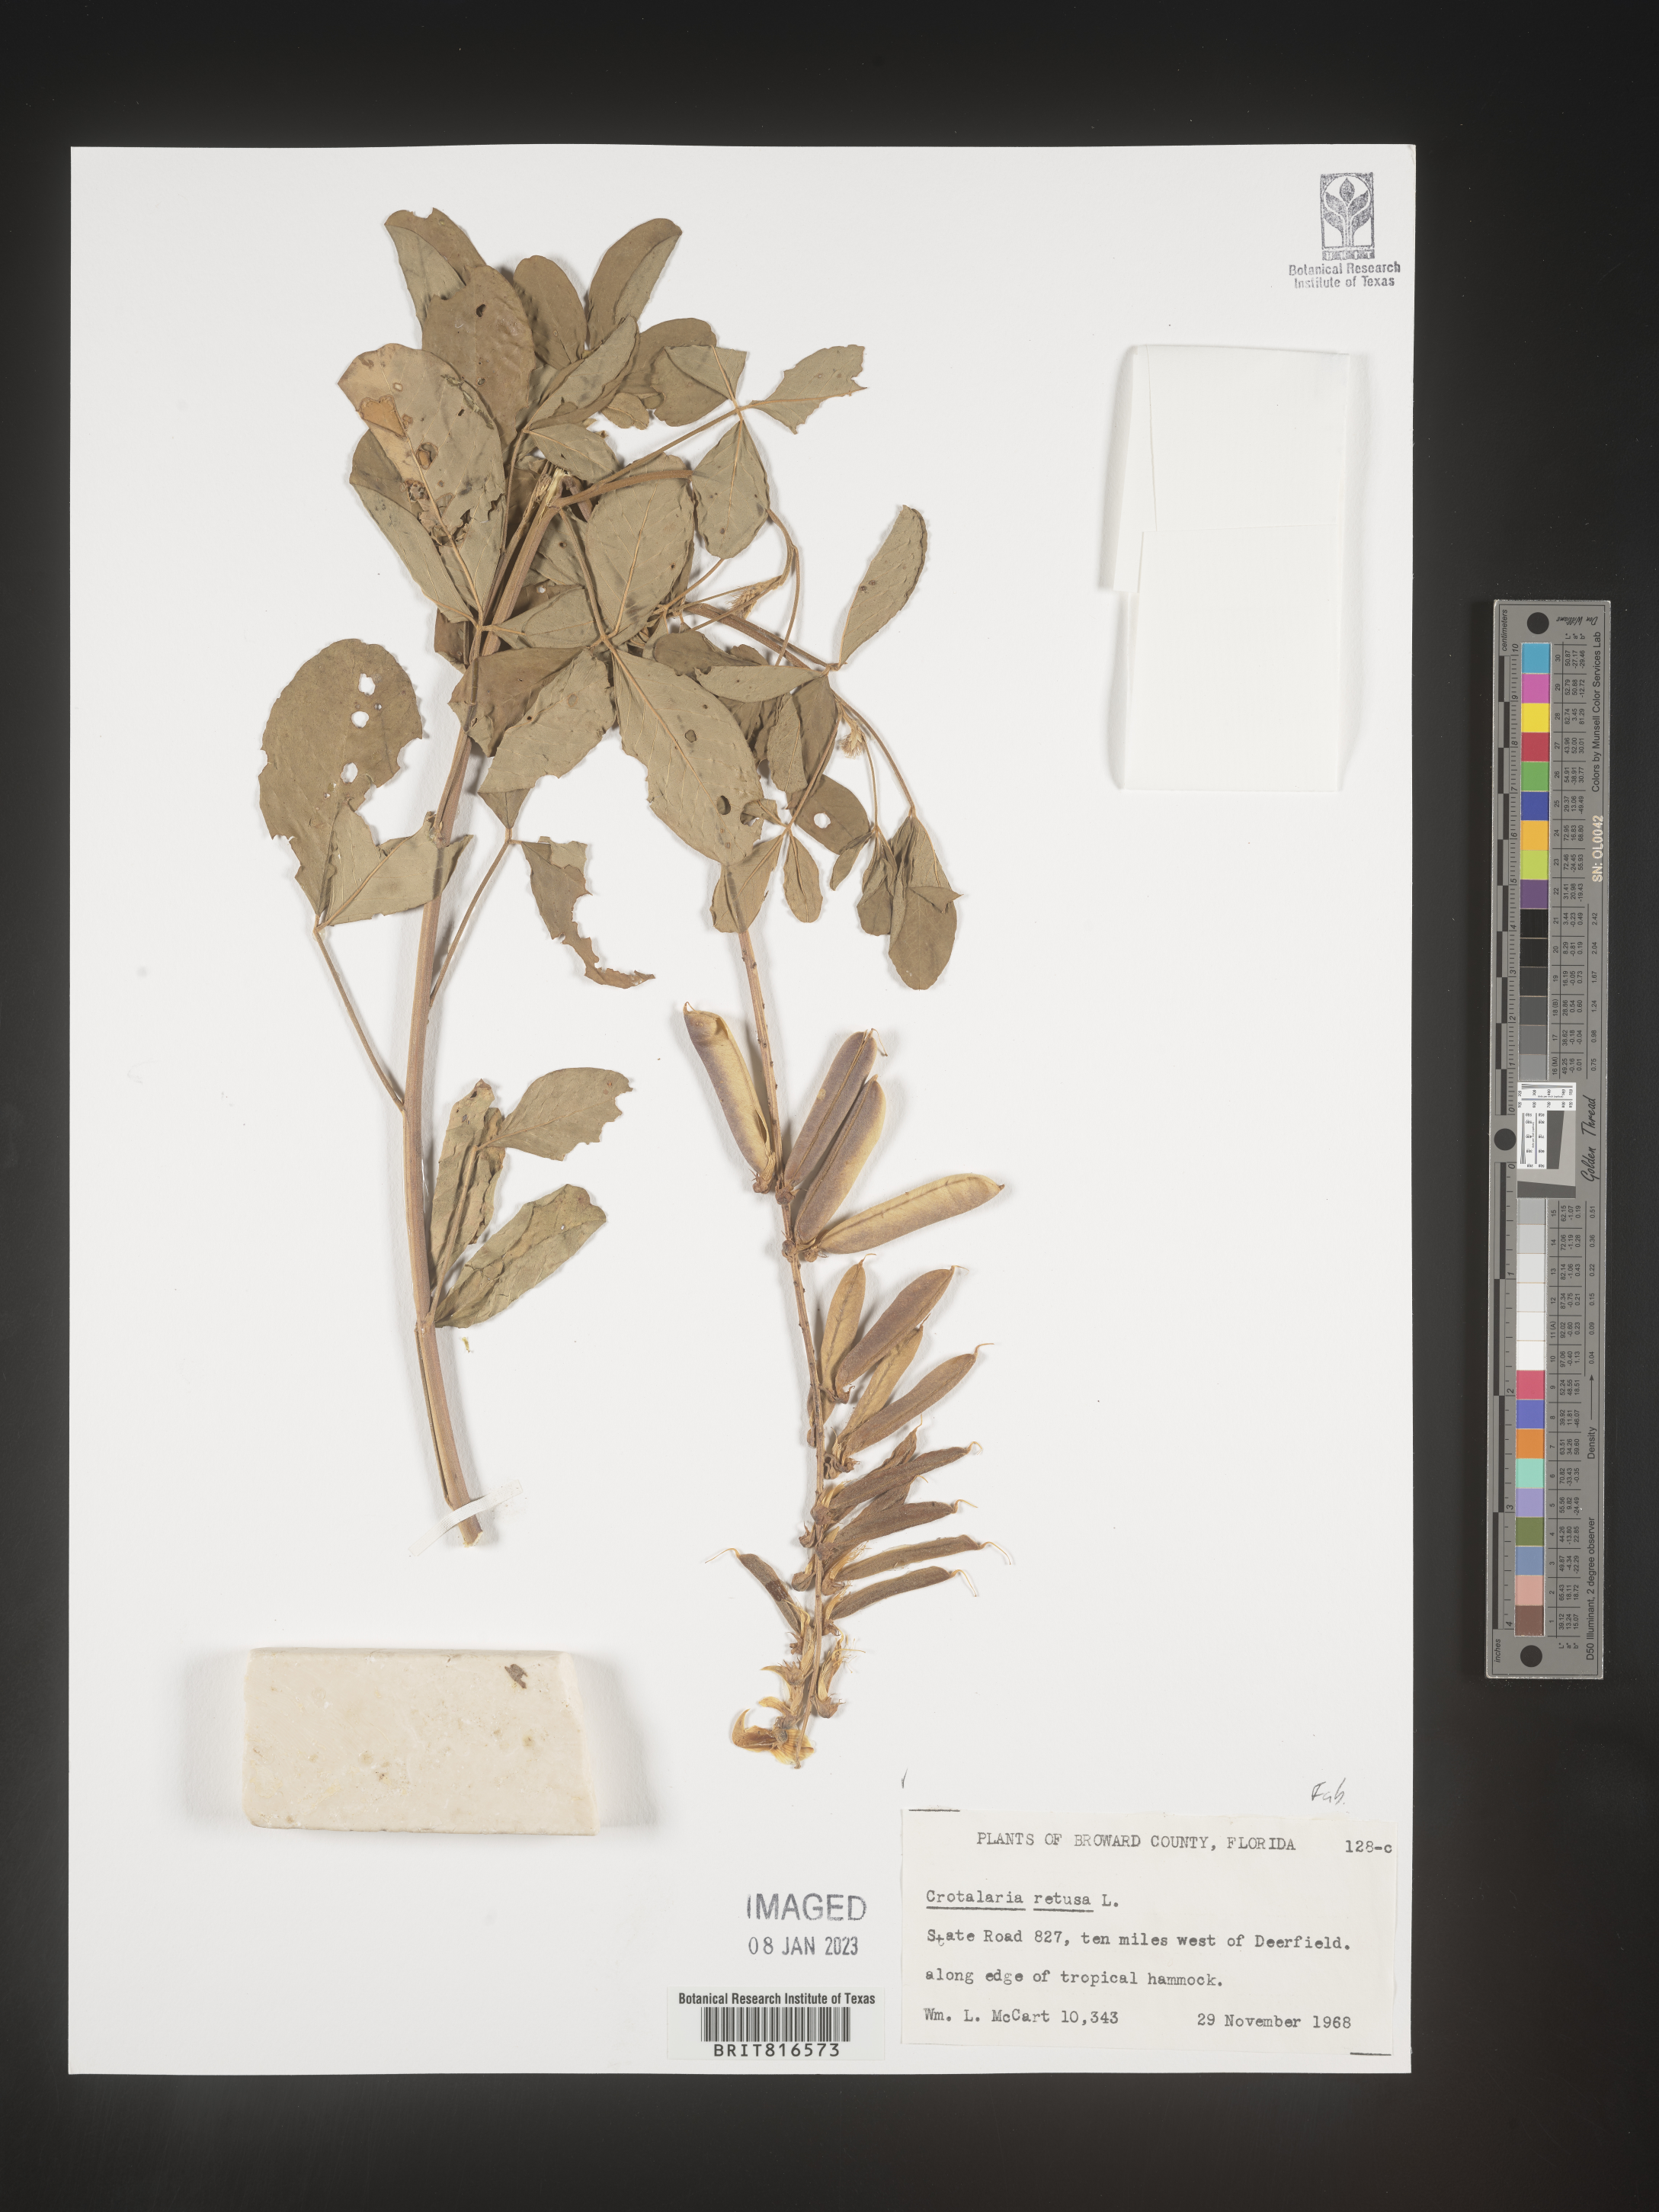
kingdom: Plantae
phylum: Tracheophyta
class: Magnoliopsida
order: Fabales
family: Fabaceae
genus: Crotalaria
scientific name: Crotalaria retusa
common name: Rattleweed
